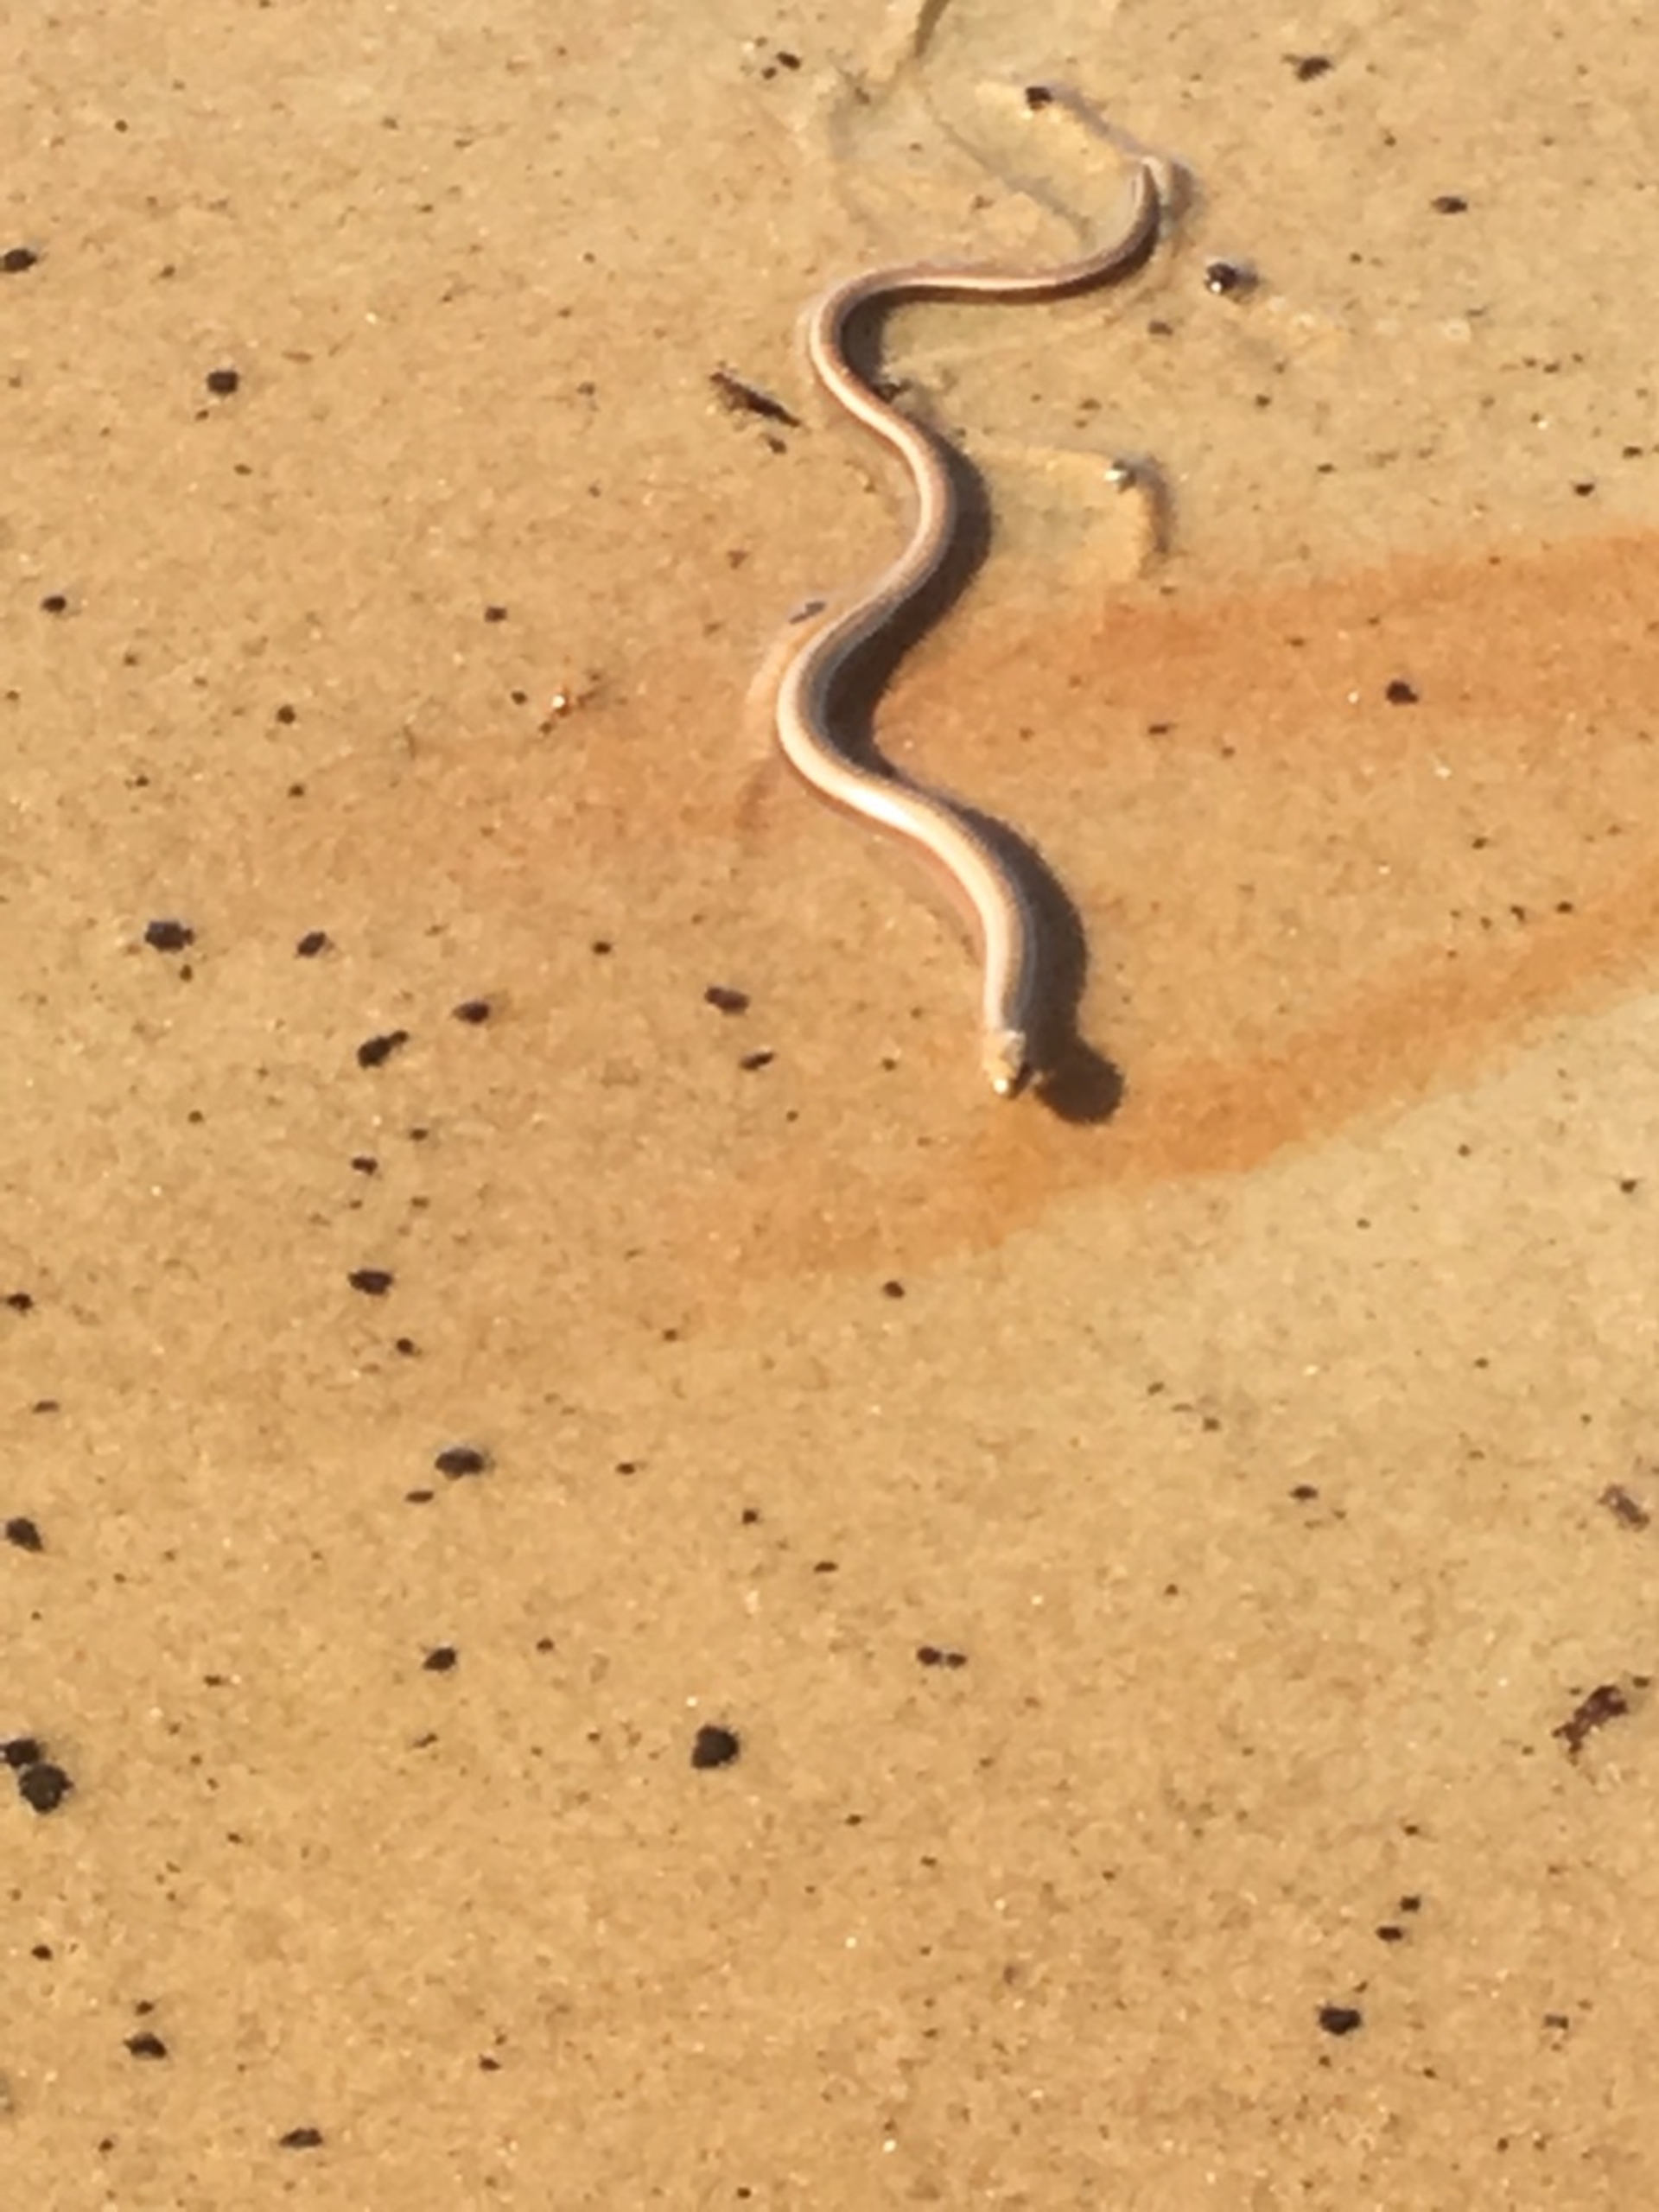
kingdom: Animalia
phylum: Chordata
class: Squamata
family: Anguidae
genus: Anguis
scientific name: Anguis fragilis
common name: Stålorm
